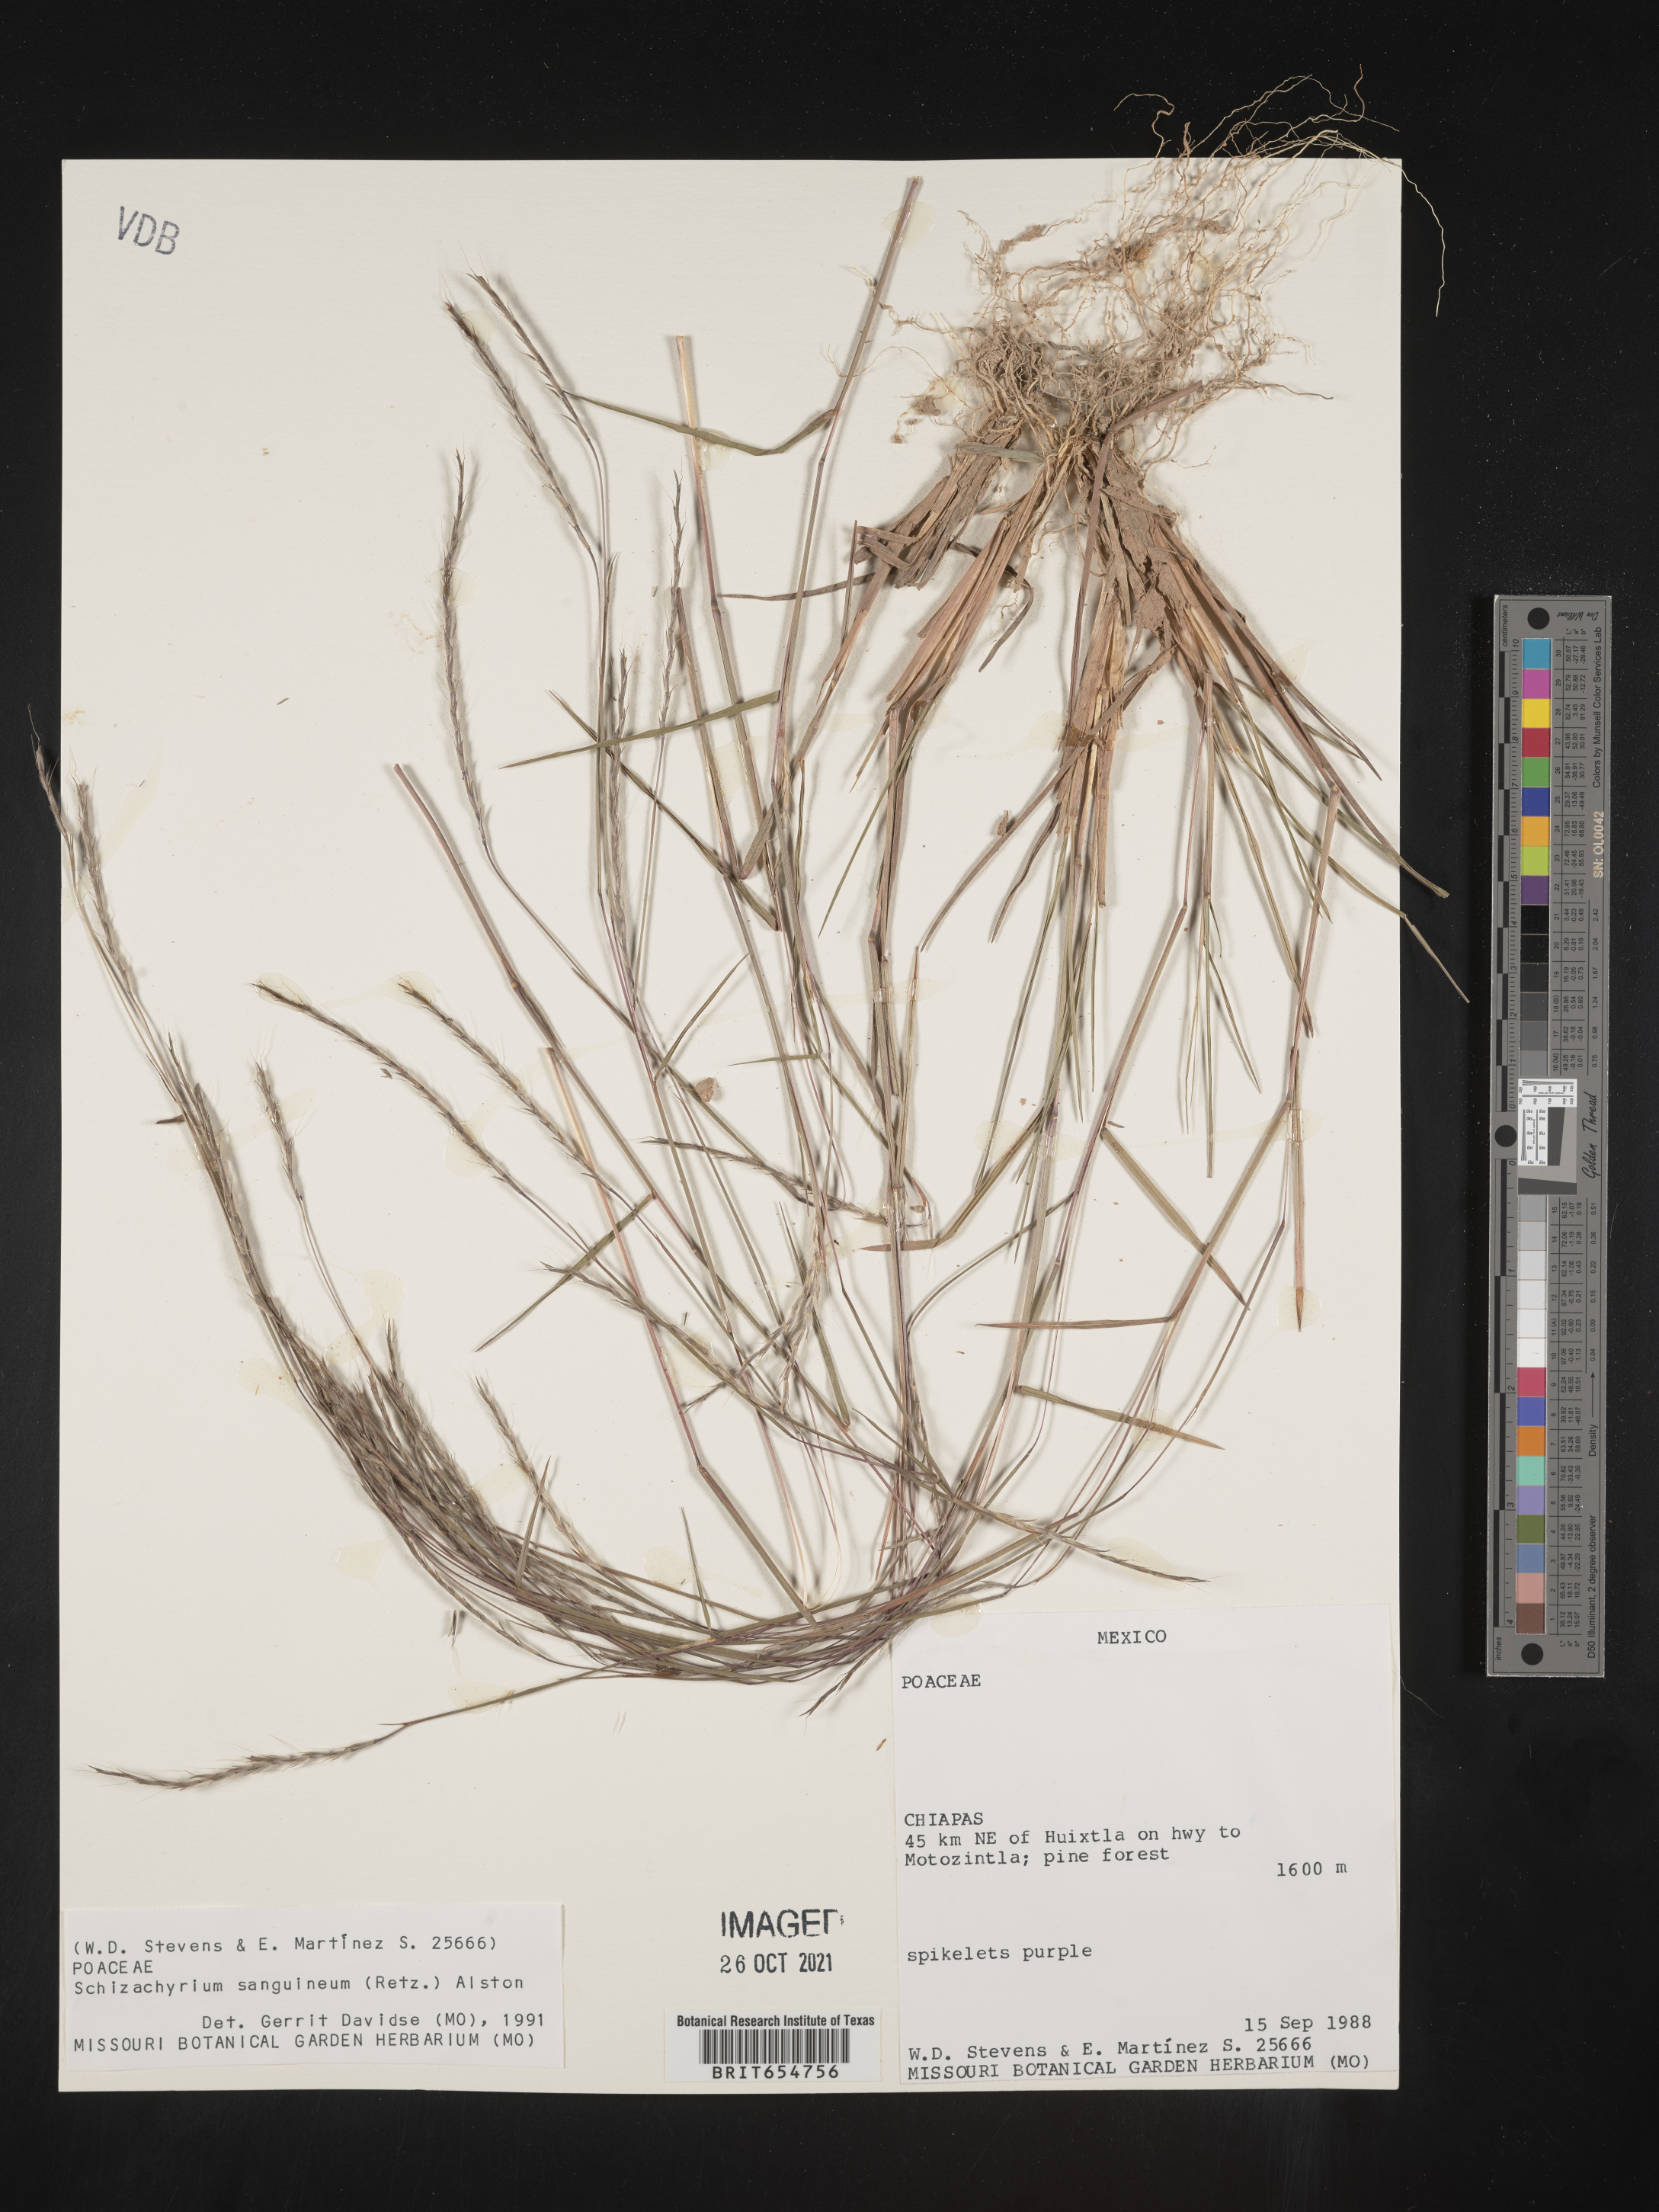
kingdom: Plantae
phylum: Tracheophyta
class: Liliopsida
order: Poales
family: Poaceae
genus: Andropogon
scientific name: Andropogon
